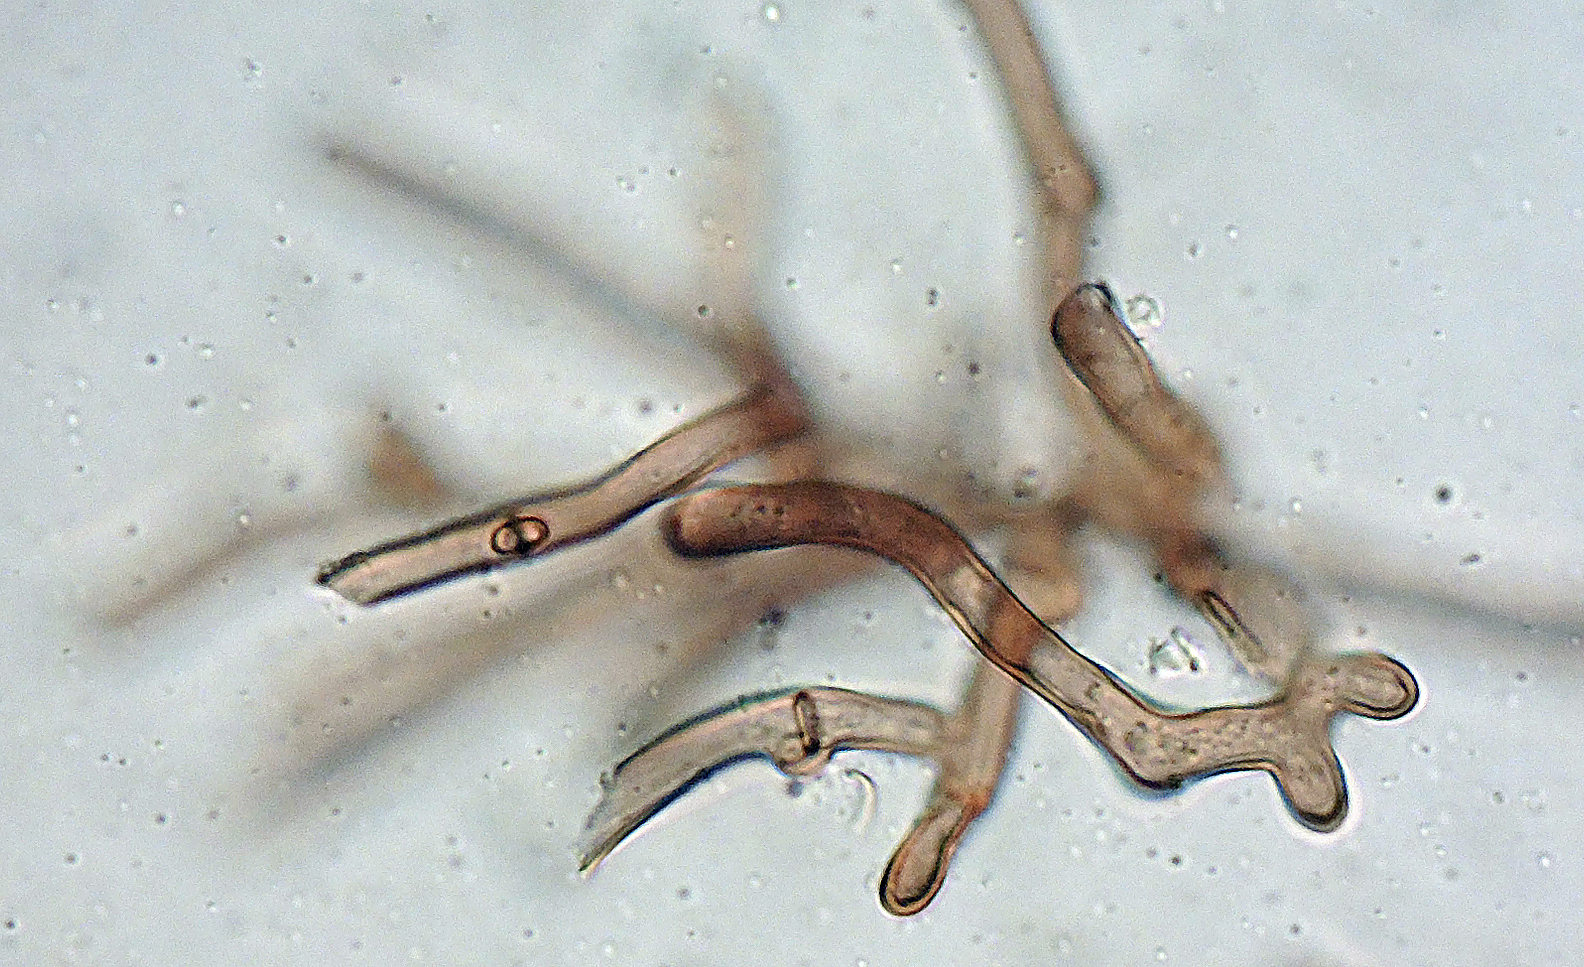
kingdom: Fungi
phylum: Basidiomycota
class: Agaricomycetes
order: Thelephorales
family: Thelephoraceae
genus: Thelephora
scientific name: Thelephora atra
